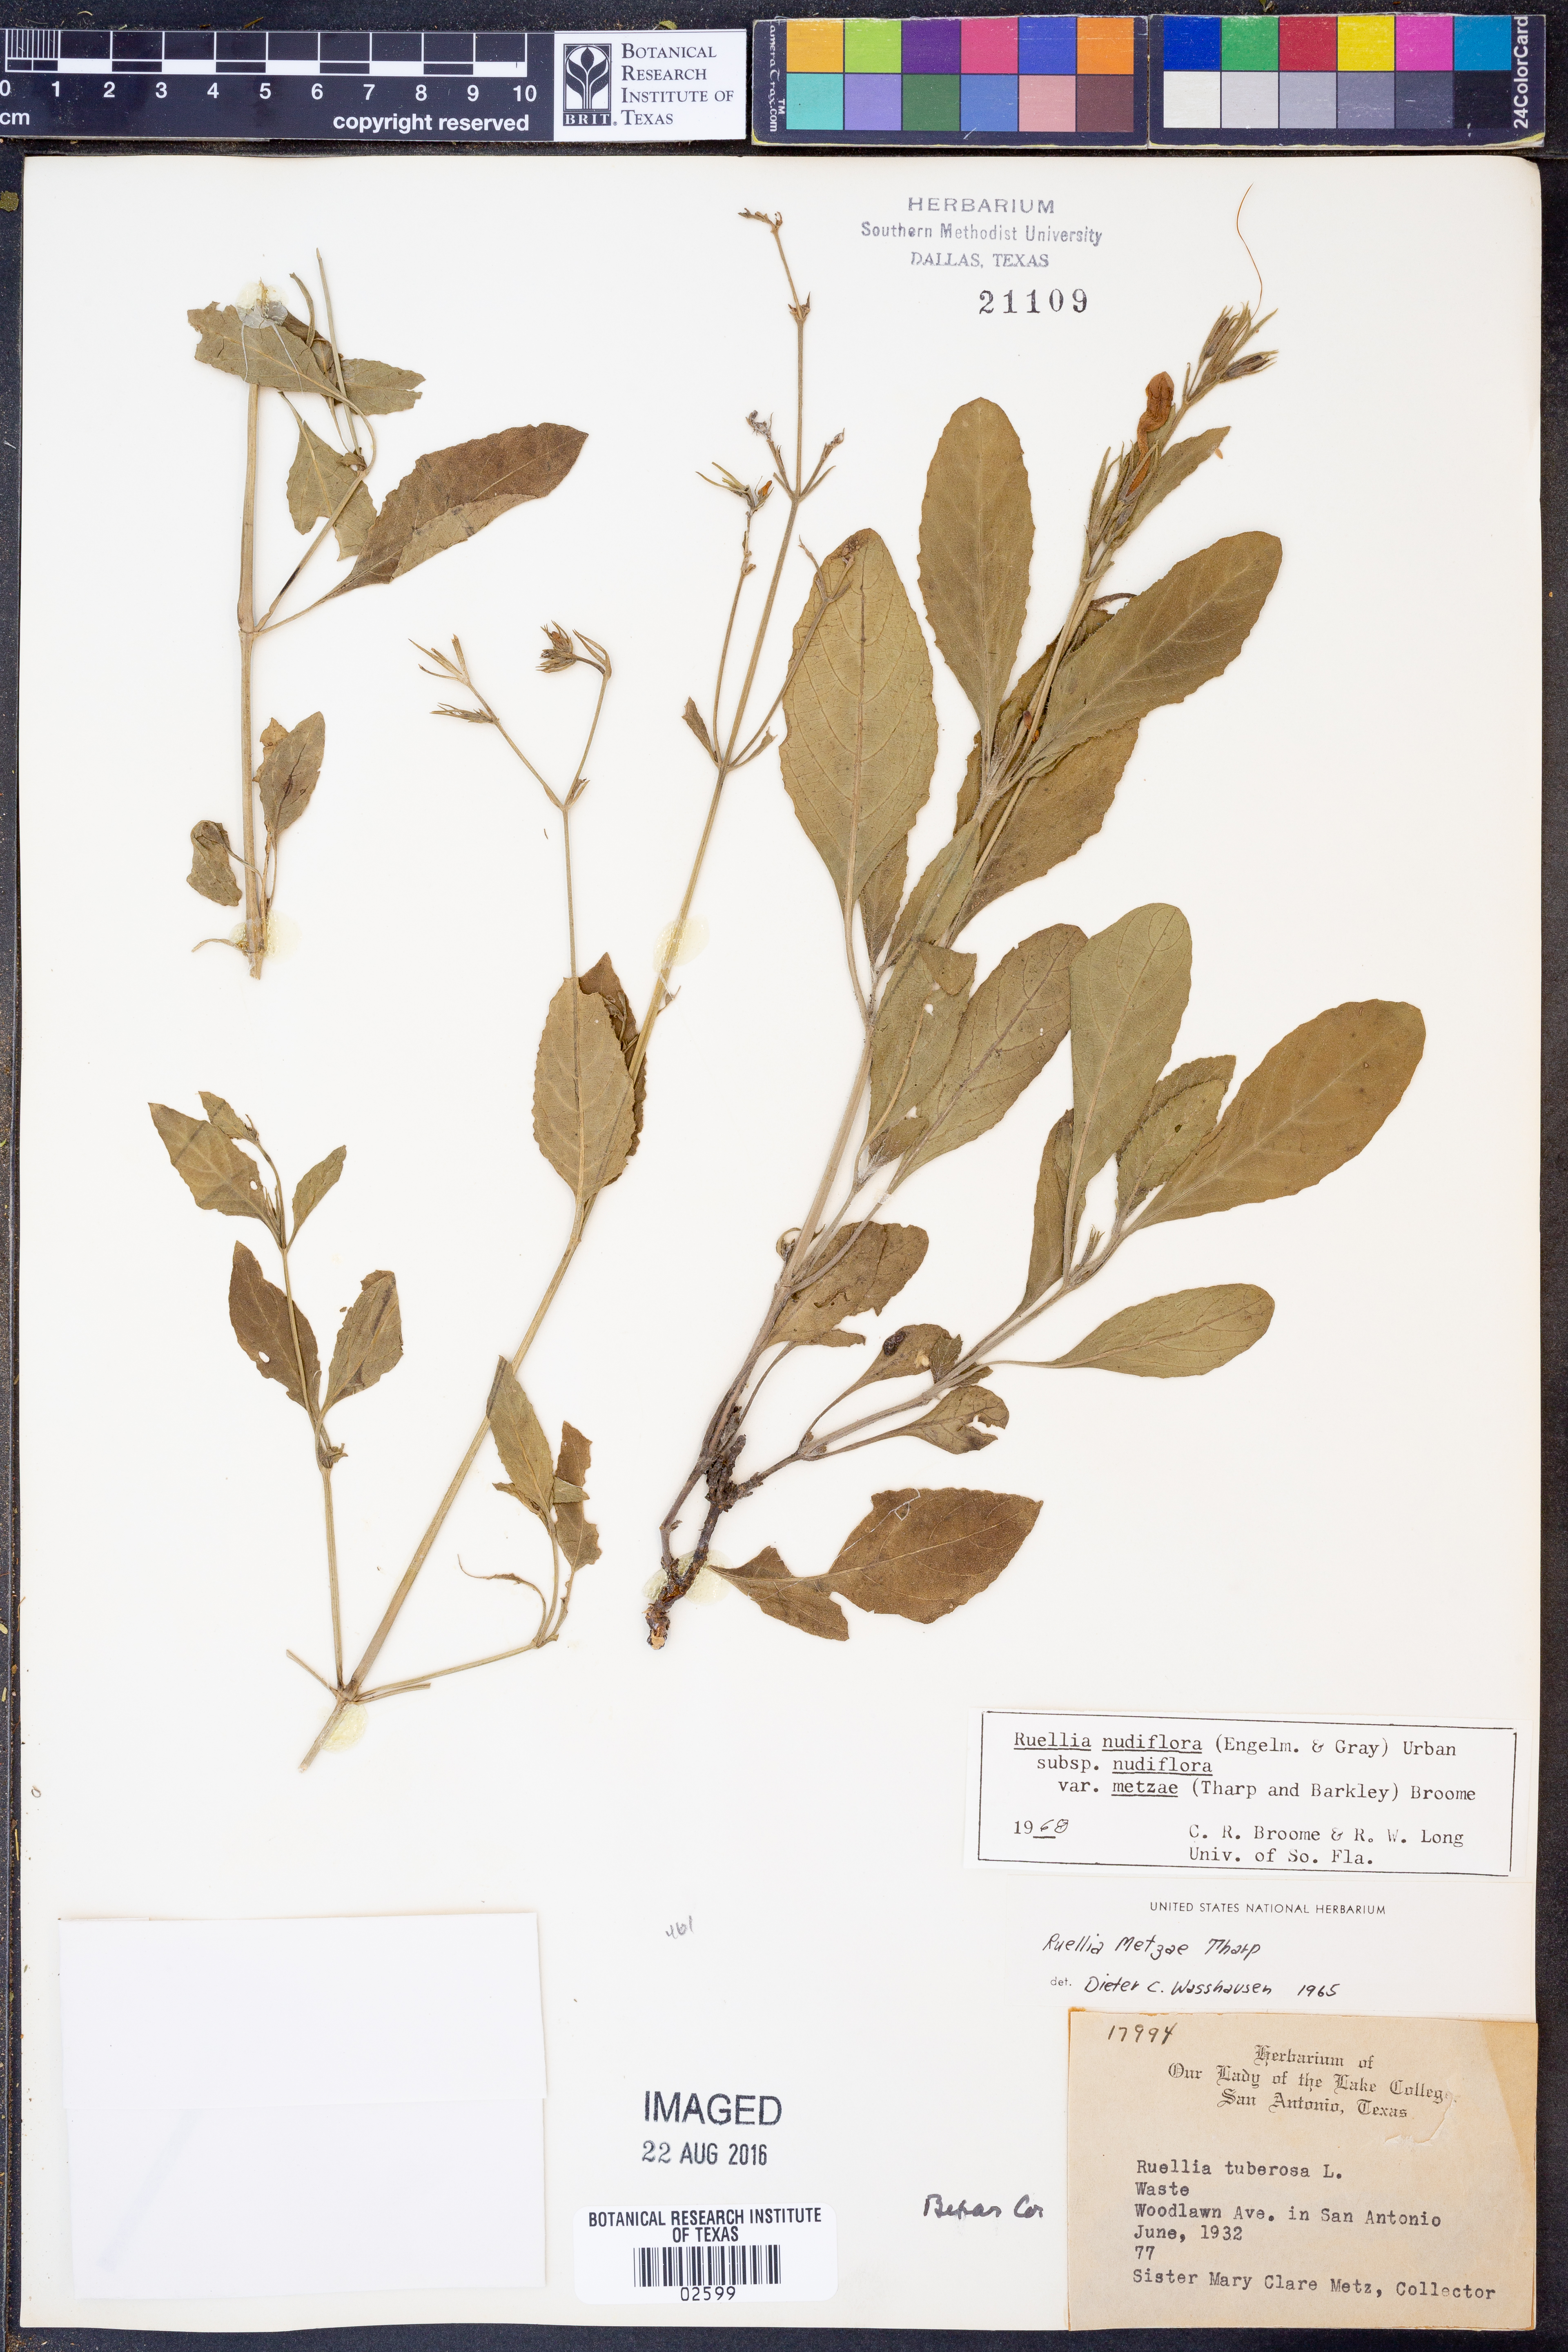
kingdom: Plantae
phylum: Tracheophyta
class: Magnoliopsida
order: Lamiales
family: Acanthaceae
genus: Ruellia
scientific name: Ruellia ciliatiflora
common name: Hairyflower wild petunia
